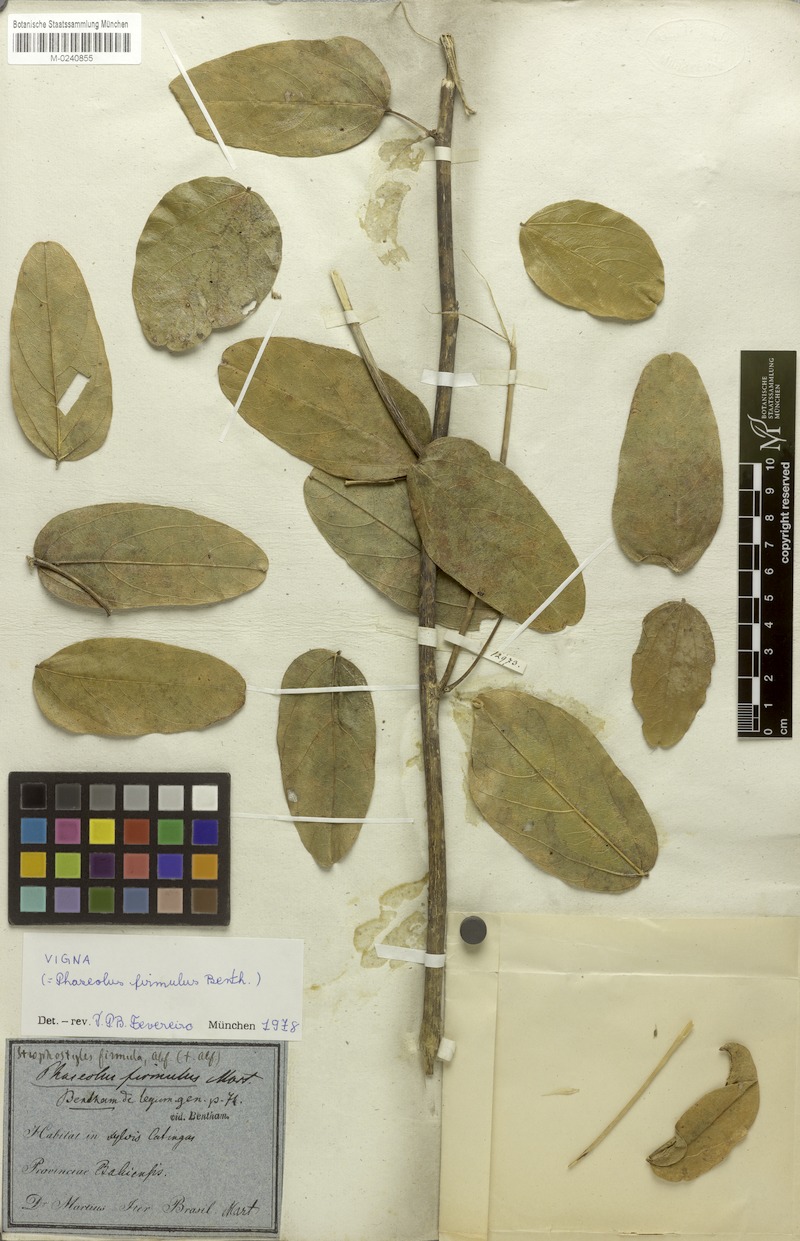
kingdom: Plantae
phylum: Tracheophyta
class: Magnoliopsida
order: Fabales
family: Fabaceae
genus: Ancistrotropis
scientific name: Ancistrotropis firmula
